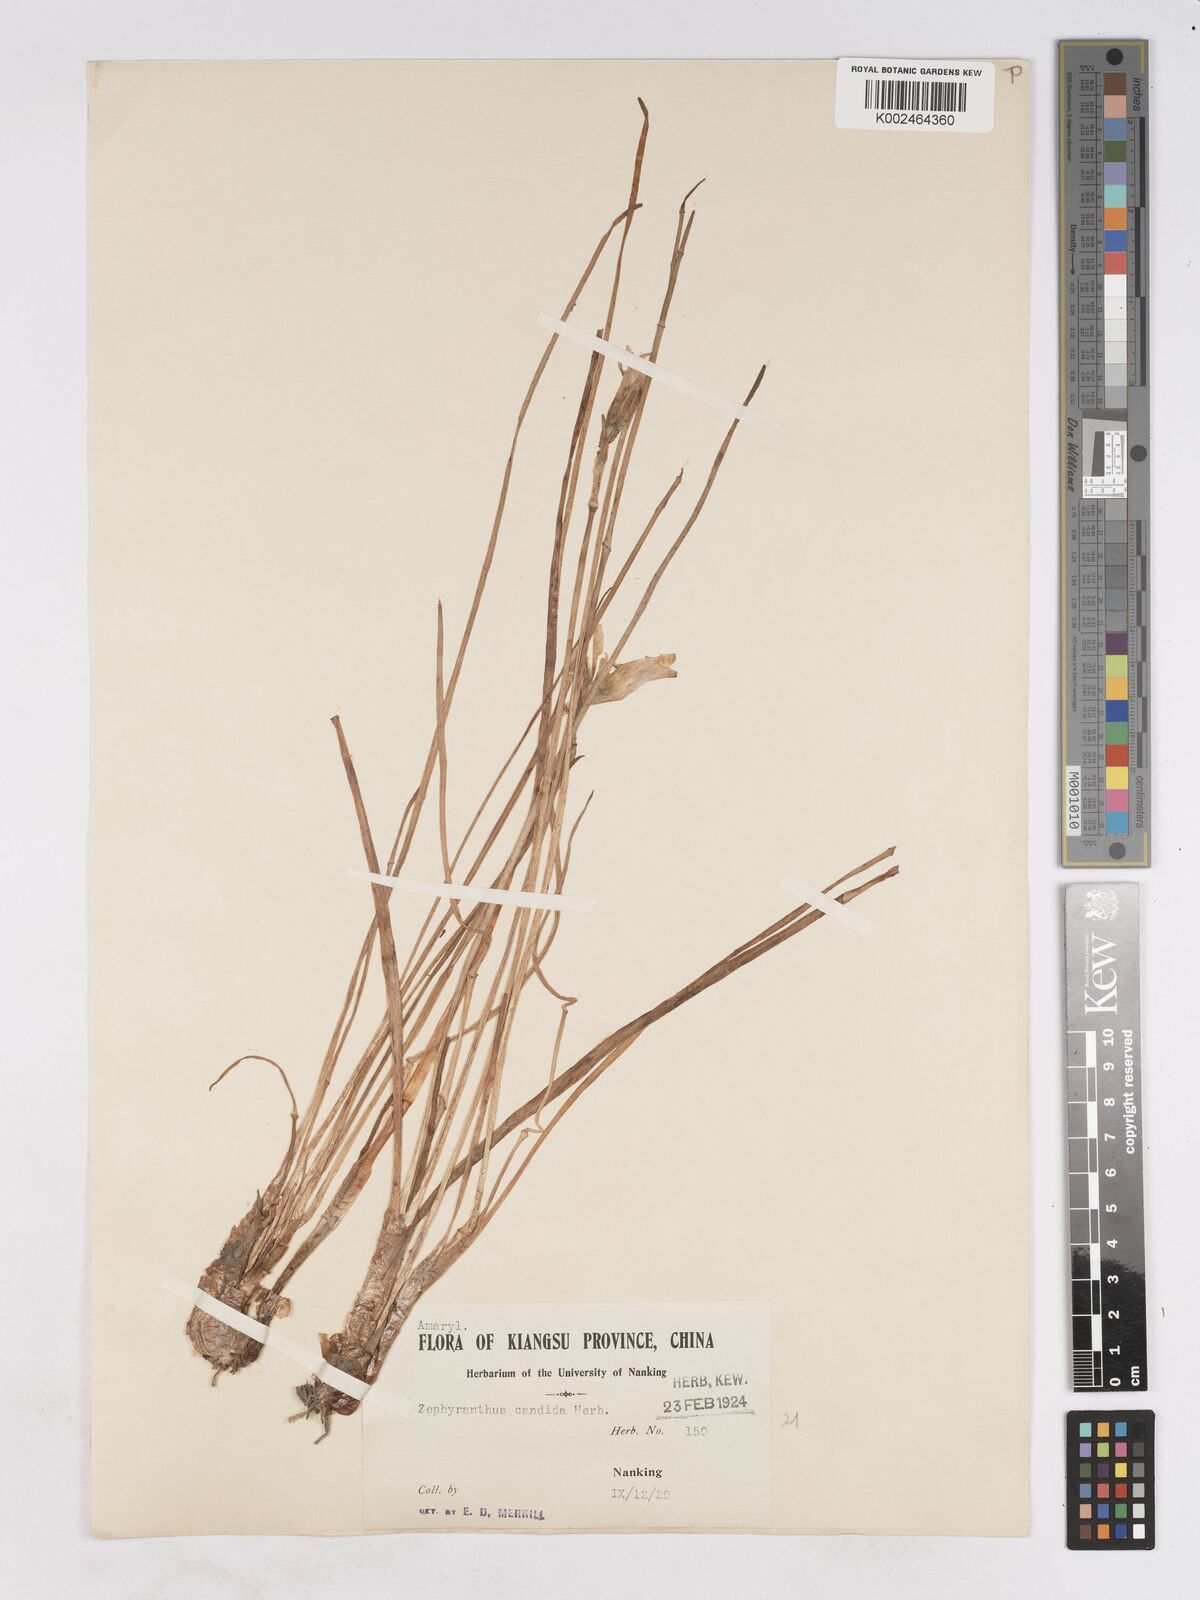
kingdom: Plantae
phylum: Tracheophyta
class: Liliopsida
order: Asparagales
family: Amaryllidaceae
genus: Zephyranthes
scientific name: Zephyranthes candida
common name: Autumn zephyrlily
